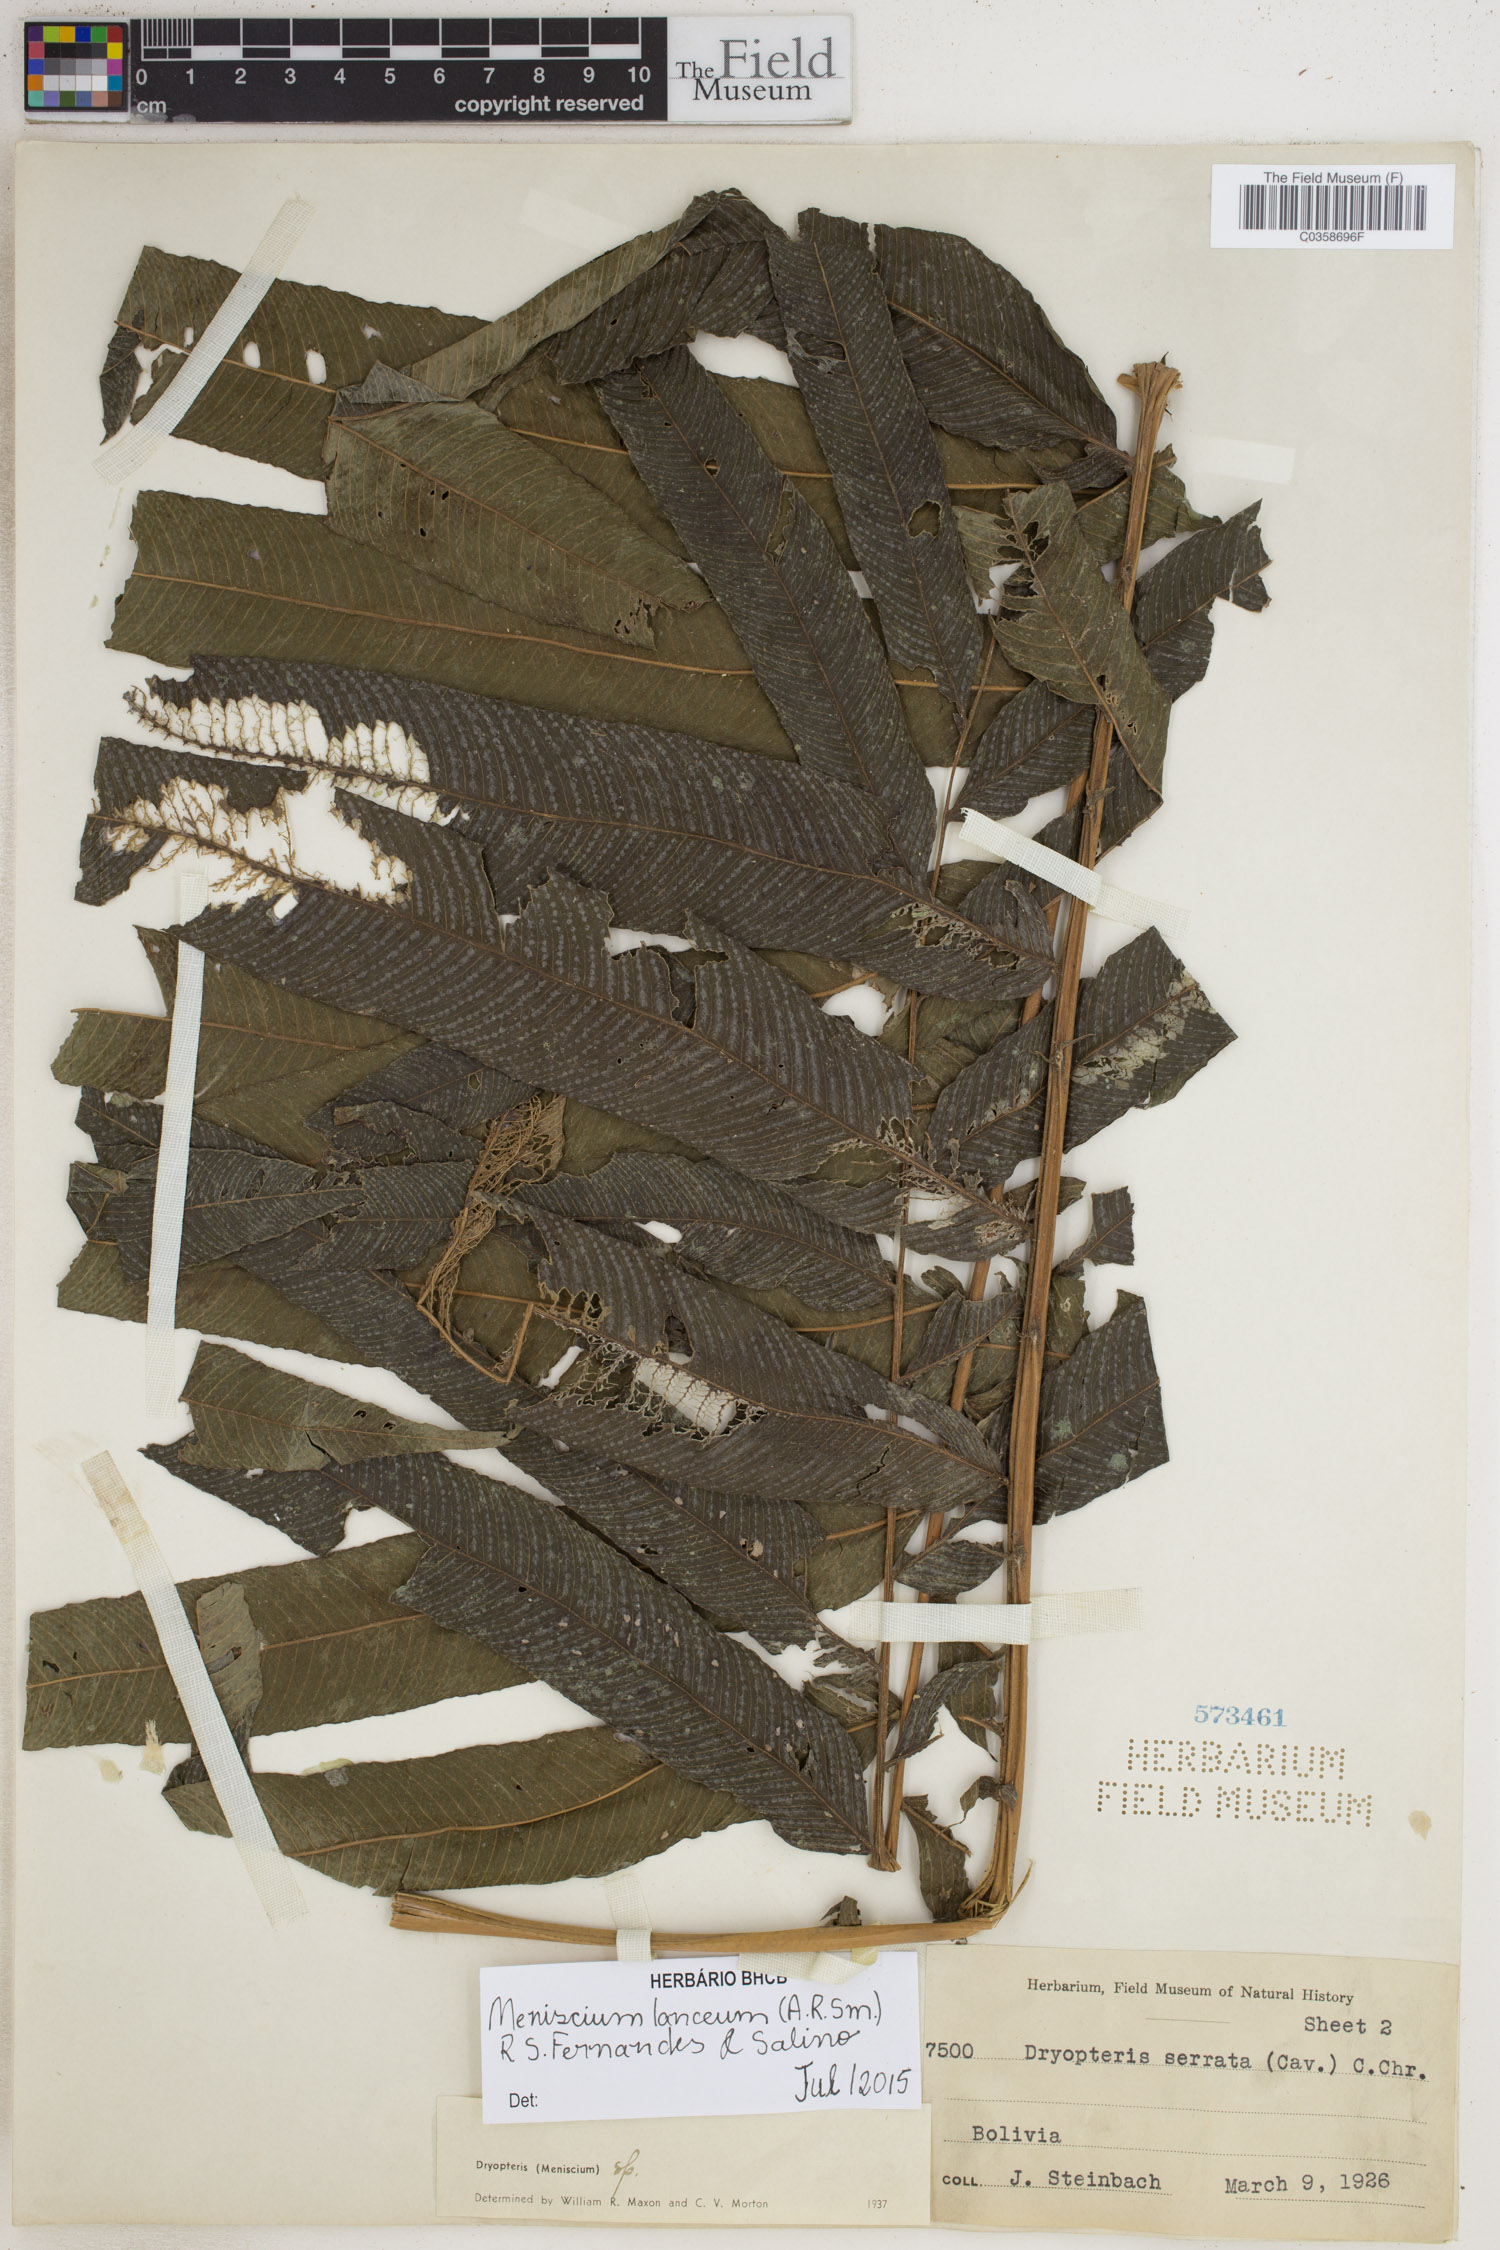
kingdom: Plantae
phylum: Tracheophyta
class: Polypodiopsida
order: Polypodiales
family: Thelypteridaceae
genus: Meniscium
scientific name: Meniscium lanceum
